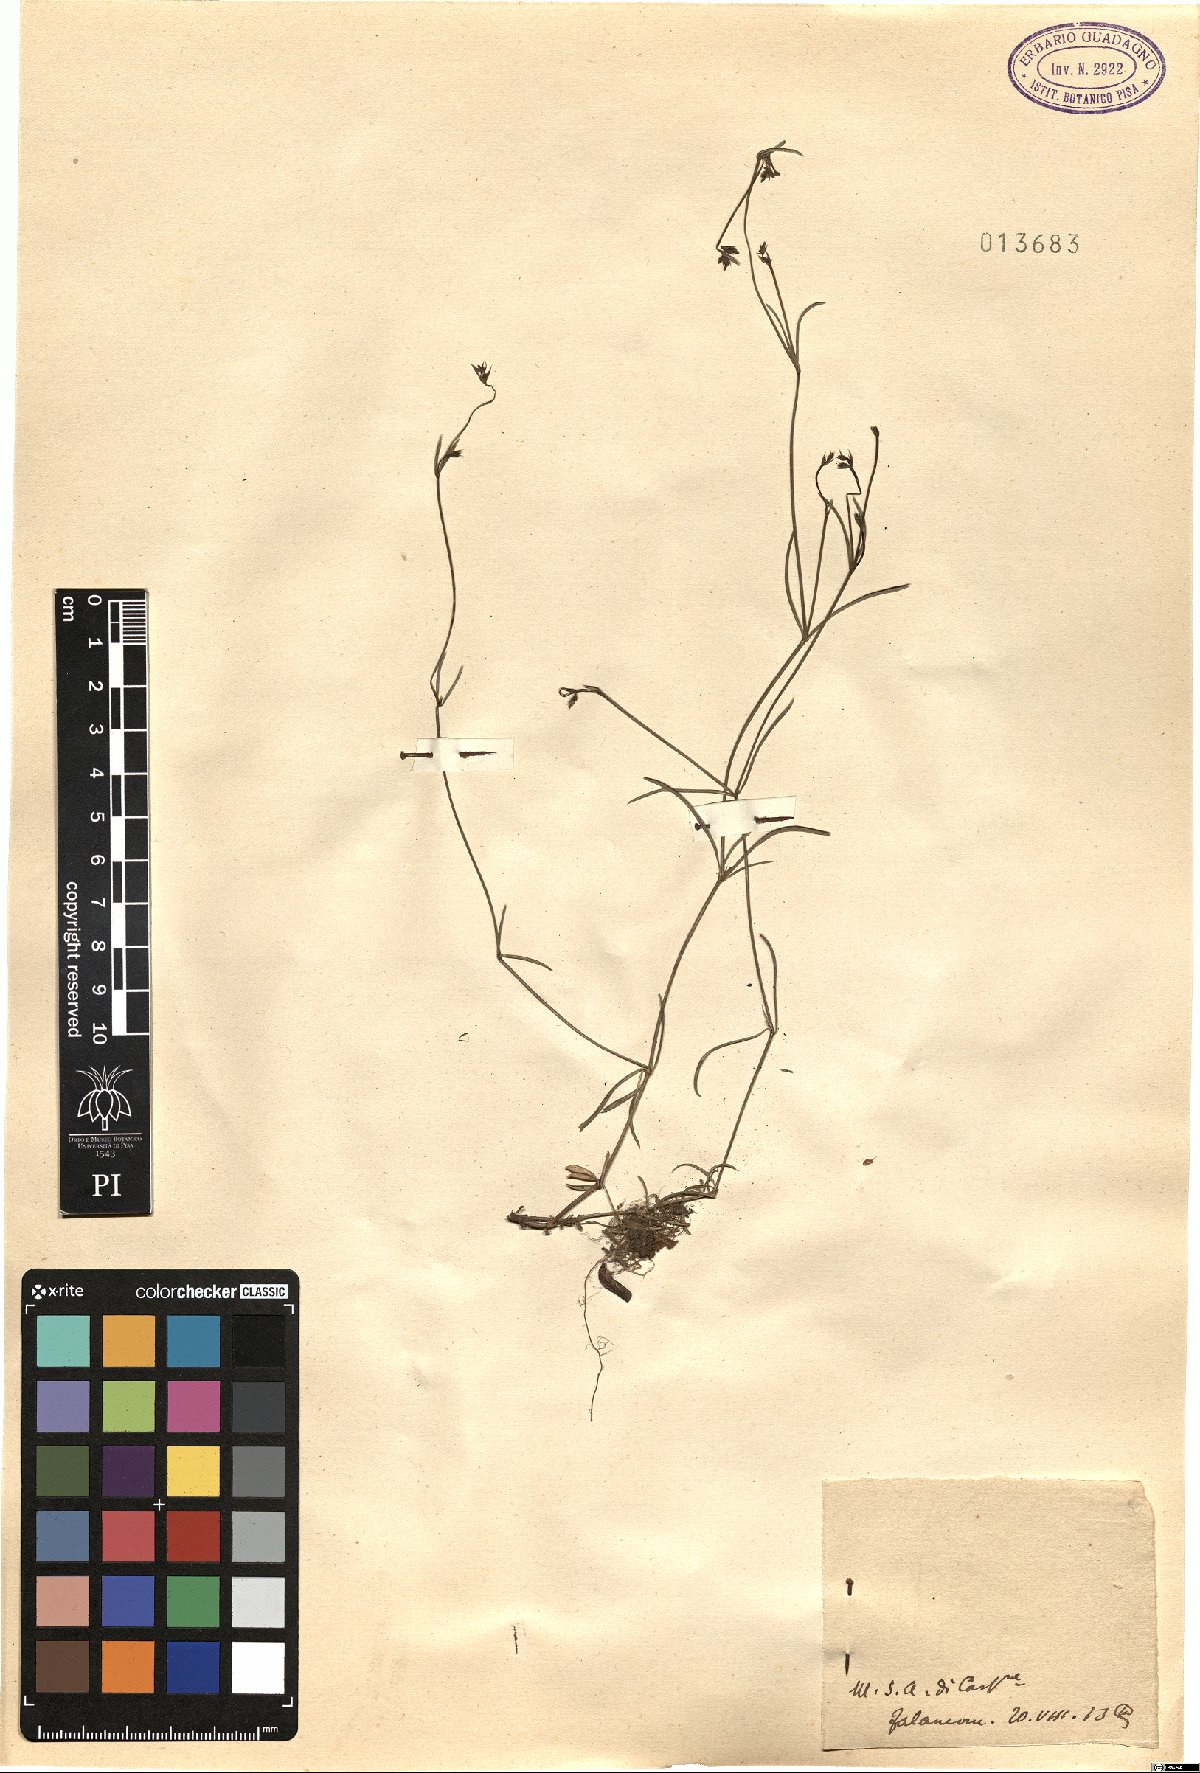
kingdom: Plantae
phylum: Tracheophyta
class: Magnoliopsida
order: Gentianales
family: Rubiaceae
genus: Asperula
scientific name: Asperula
